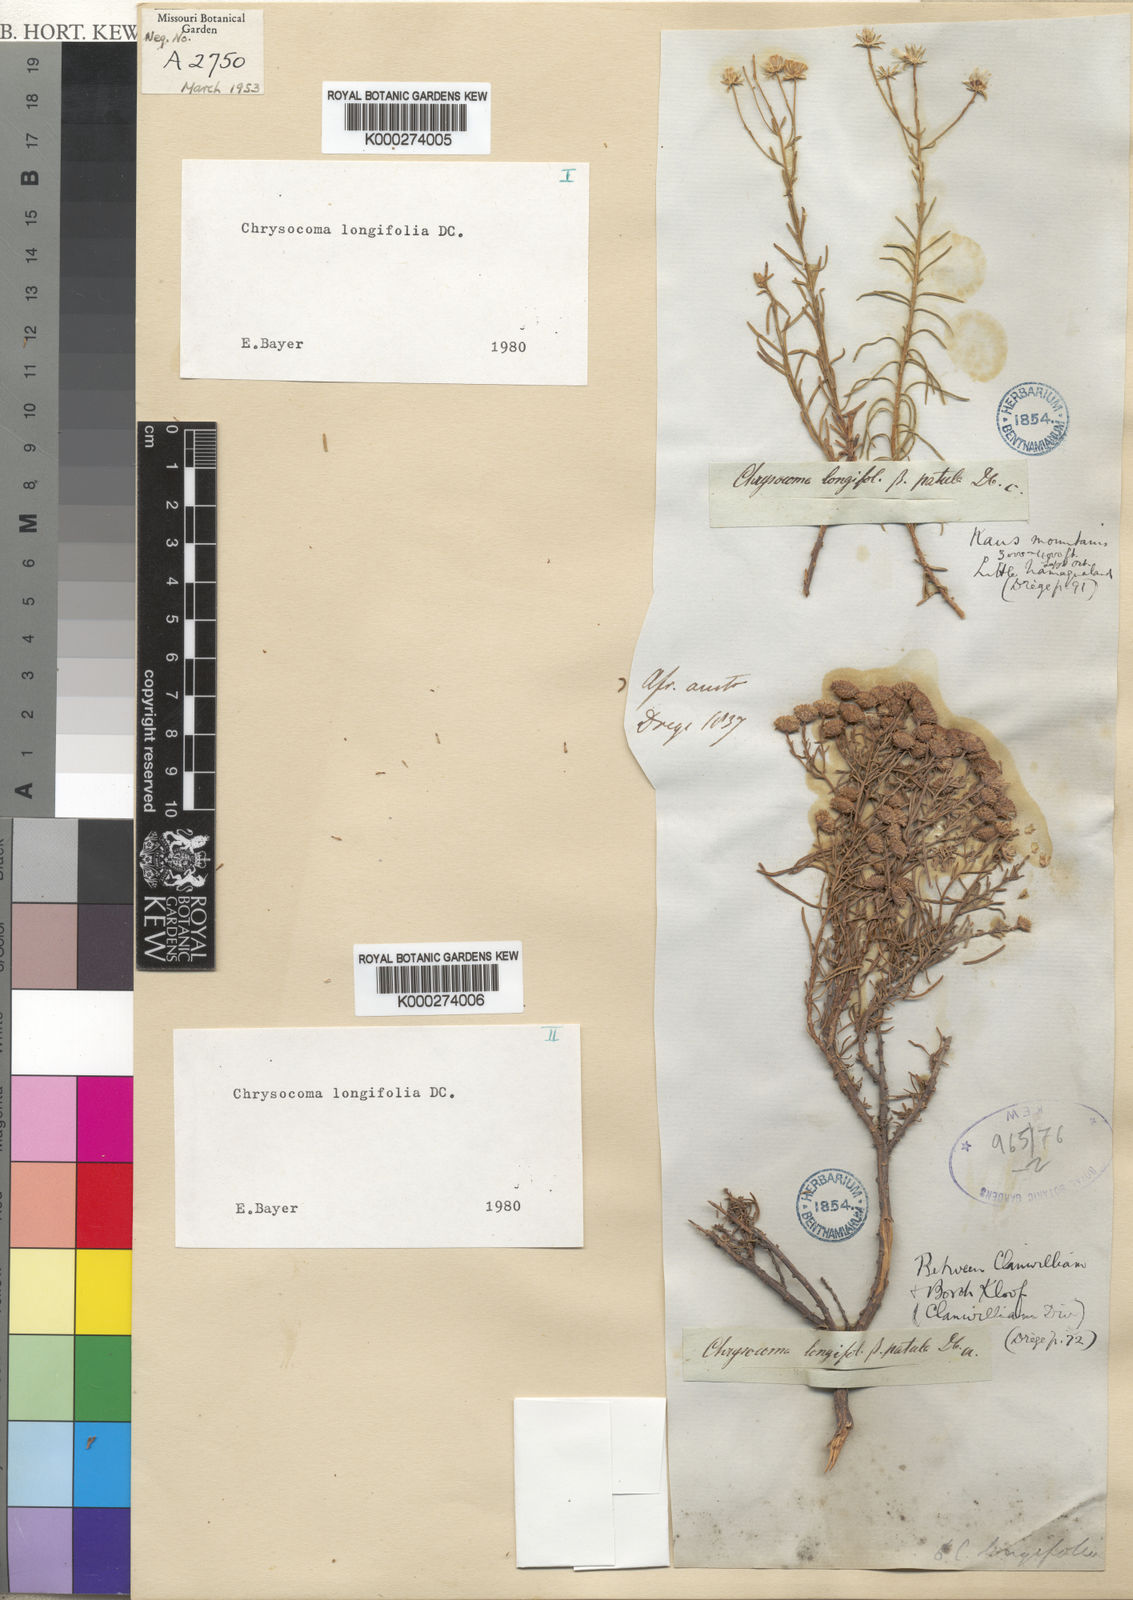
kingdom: Plantae
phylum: Tracheophyta
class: Magnoliopsida
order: Asterales
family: Asteraceae
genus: Chrysocoma
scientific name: Chrysocoma longifolia
